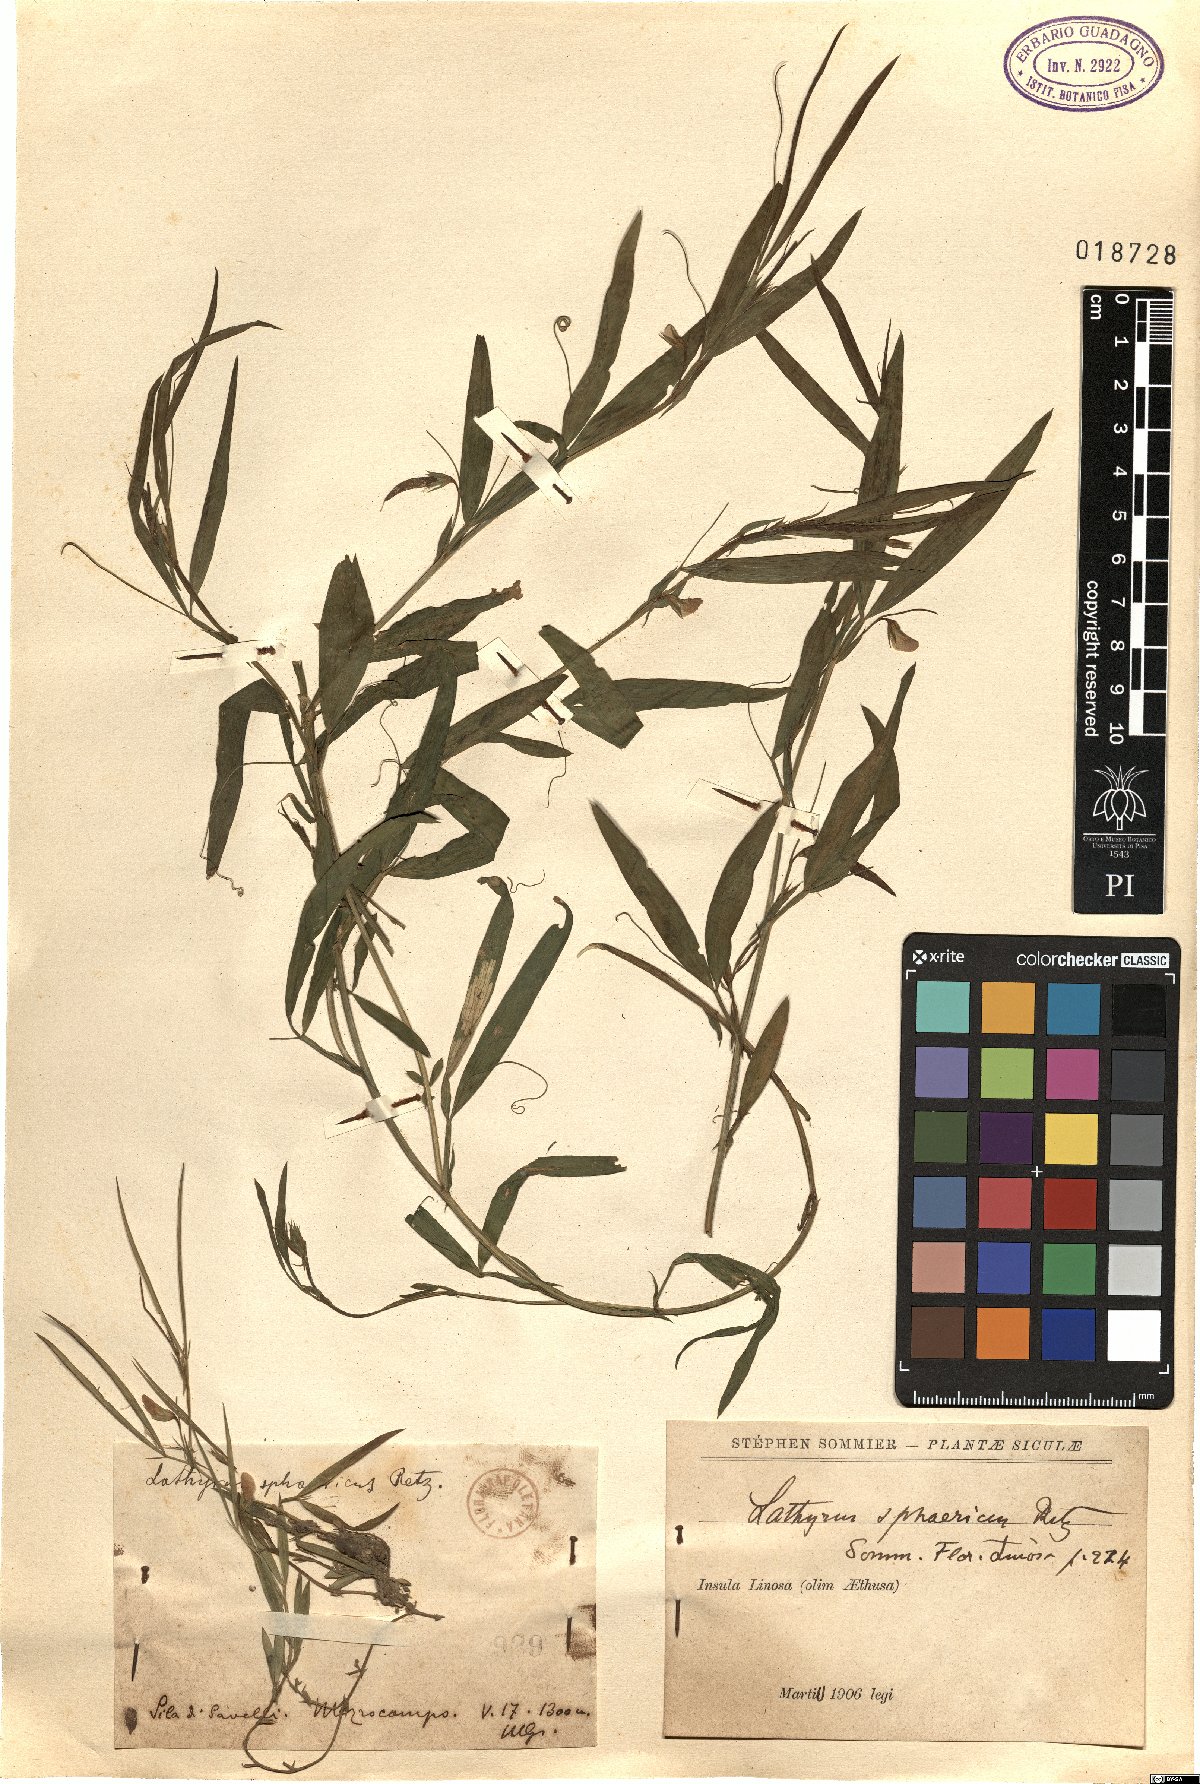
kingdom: Plantae
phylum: Tracheophyta
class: Magnoliopsida
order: Fabales
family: Fabaceae
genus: Lathyrus
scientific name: Lathyrus sphaericus
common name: Grass pea
